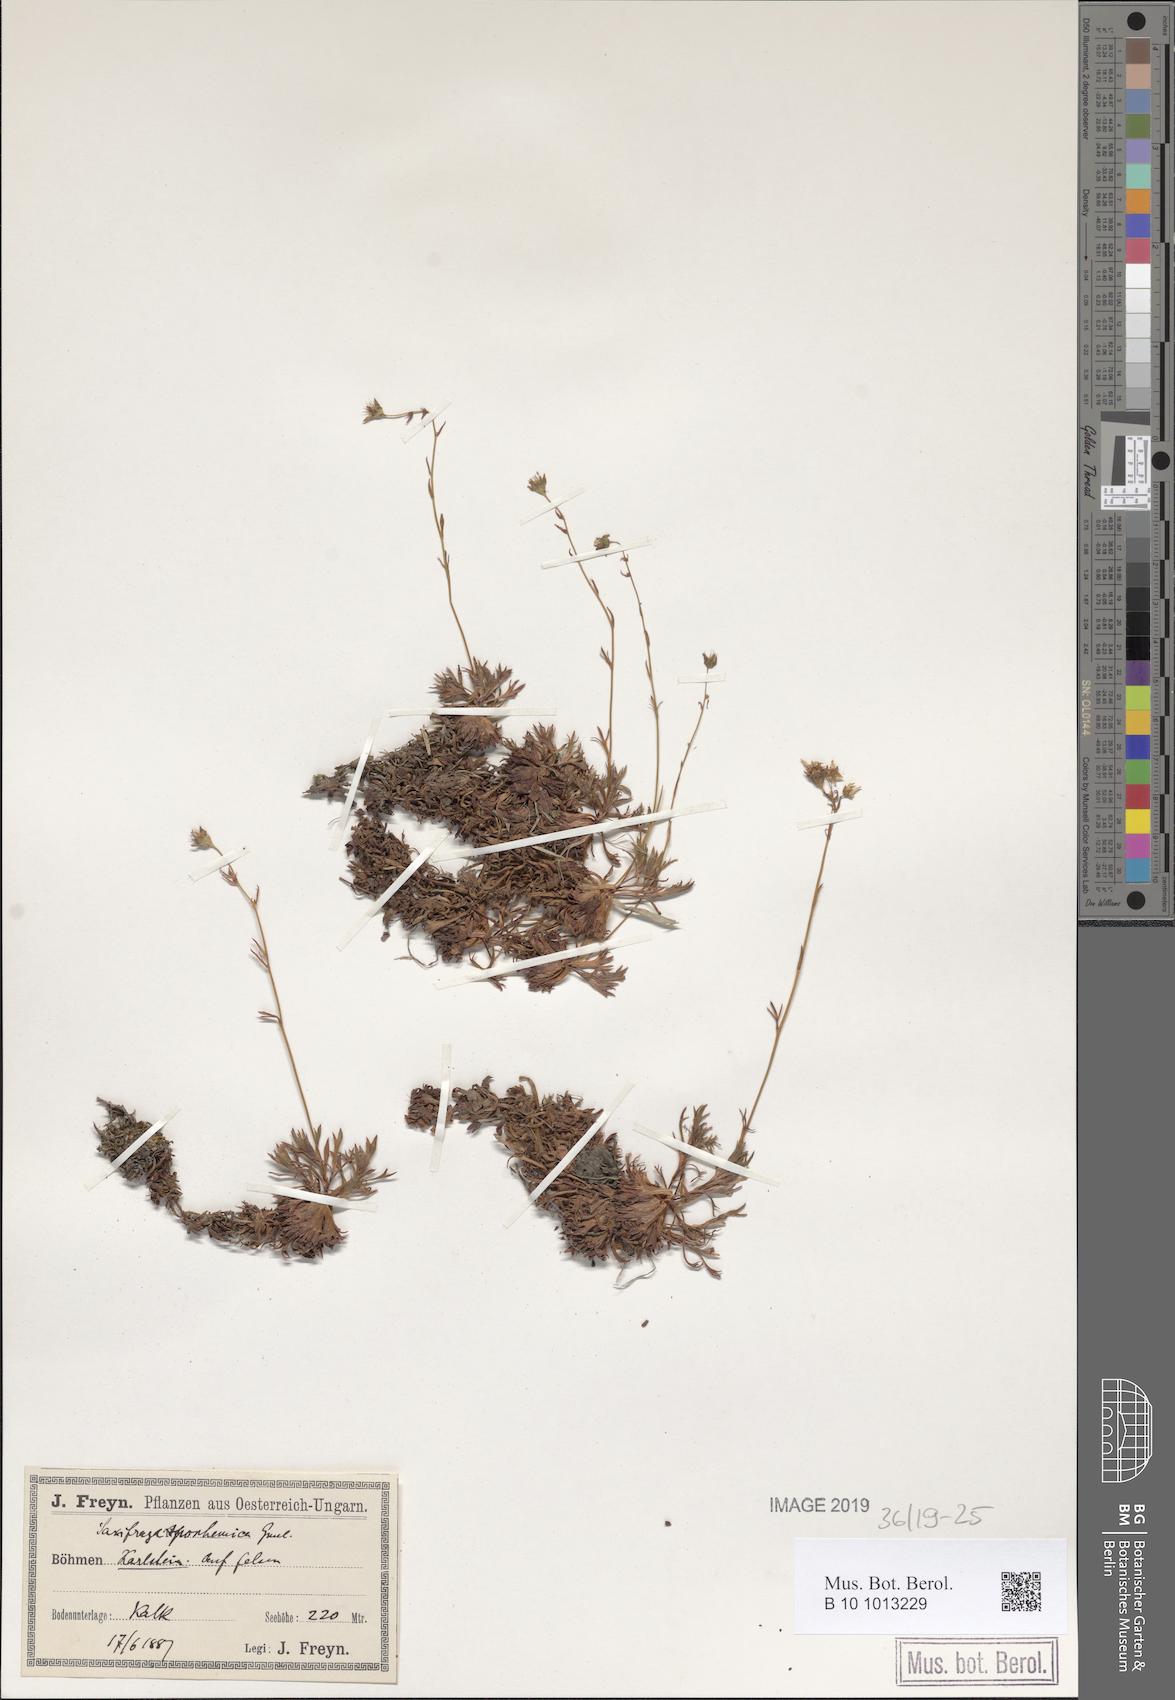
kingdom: Plantae
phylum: Tracheophyta
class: Magnoliopsida
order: Saxifragales
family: Saxifragaceae
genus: Saxifraga
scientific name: Saxifraga rosacea
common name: Irish saxifrage
